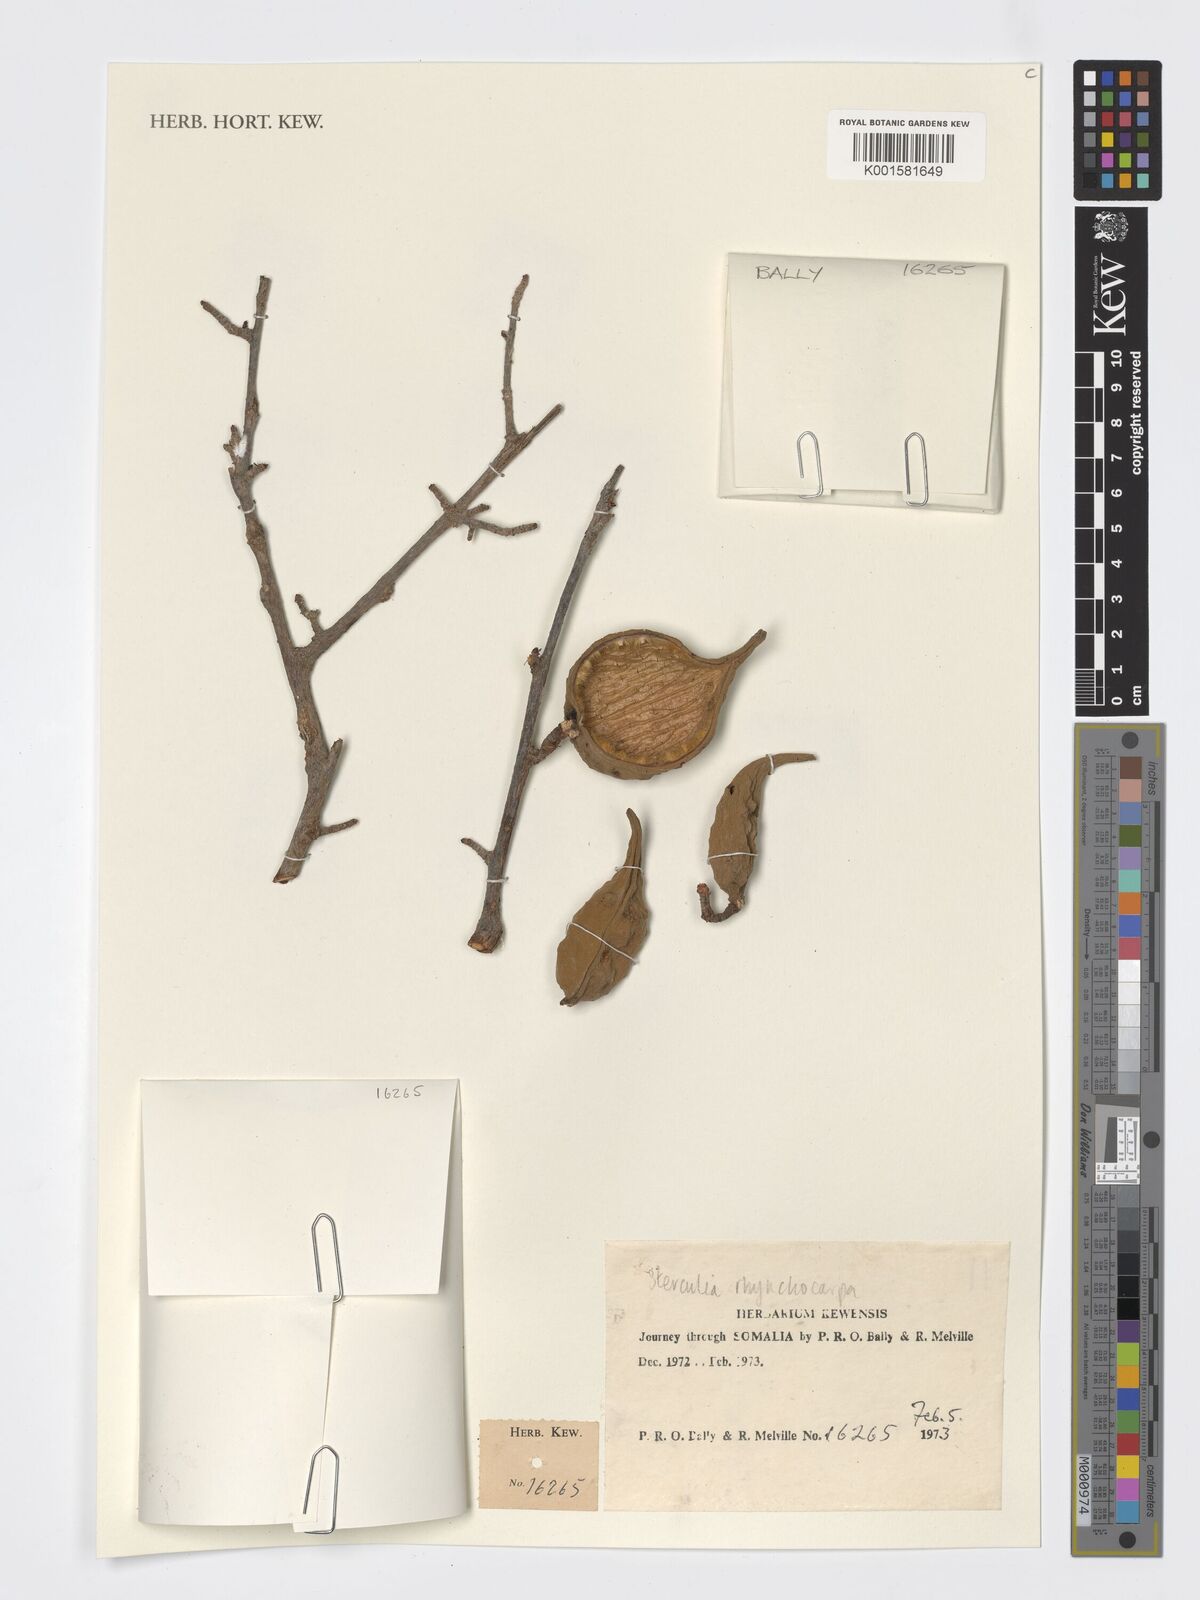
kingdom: Plantae
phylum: Tracheophyta
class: Magnoliopsida
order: Malvales
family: Malvaceae
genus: Sterculia
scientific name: Sterculia rhynchocarpa
